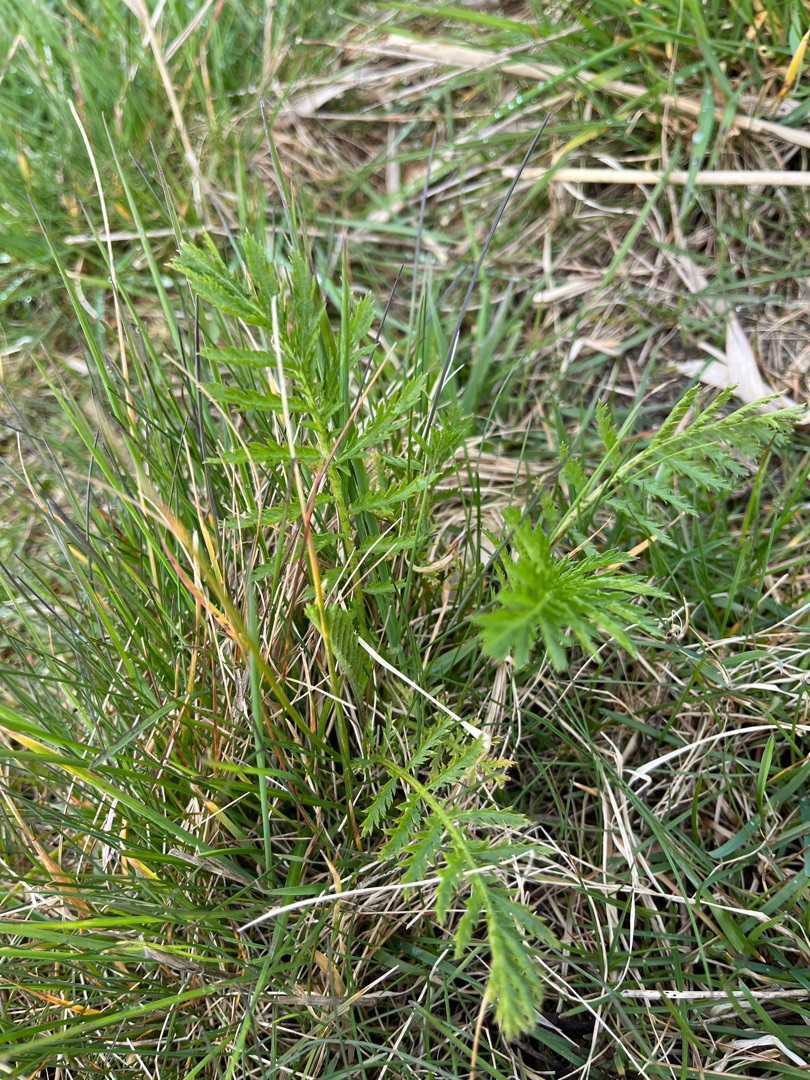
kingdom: Plantae
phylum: Tracheophyta
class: Magnoliopsida
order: Asterales
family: Asteraceae
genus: Tanacetum
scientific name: Tanacetum vulgare
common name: Rejnfan
